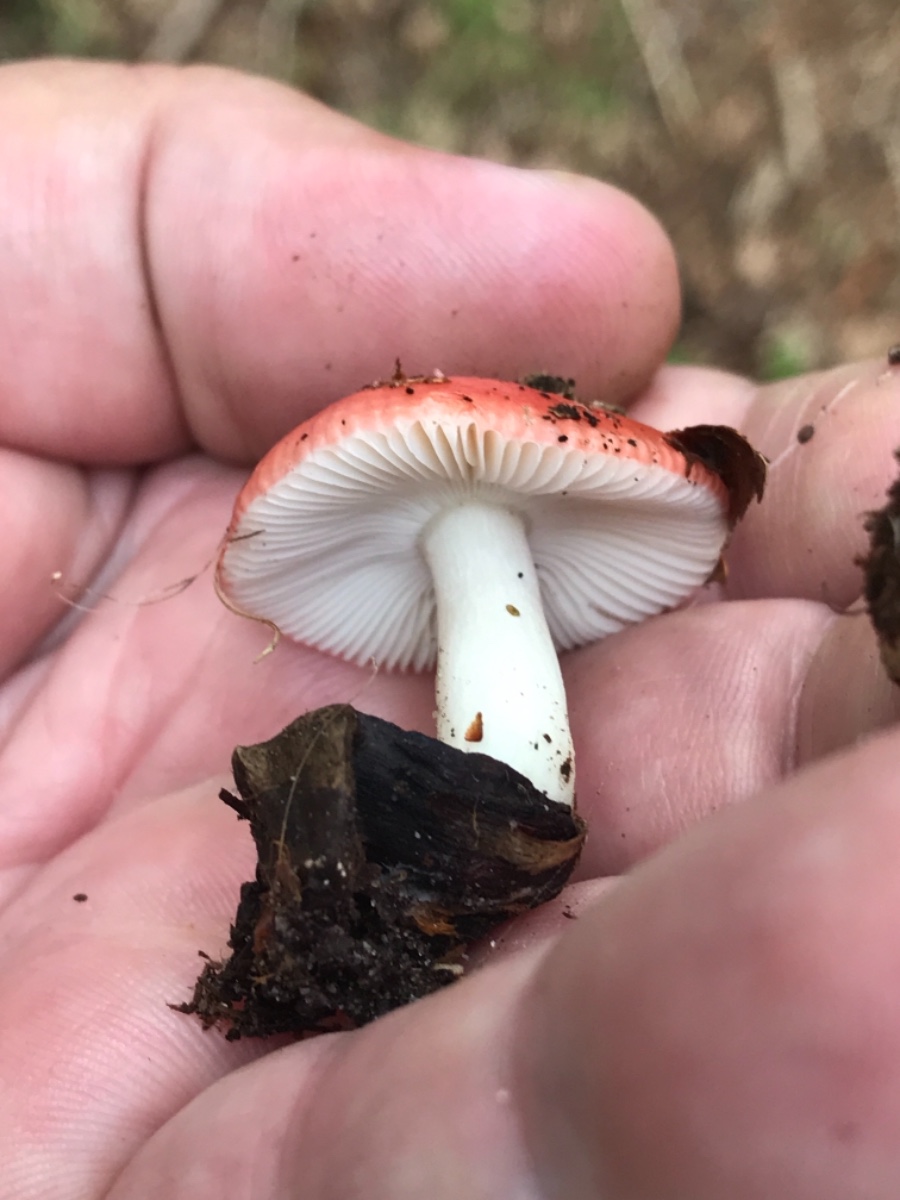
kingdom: Fungi
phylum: Basidiomycota
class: Agaricomycetes
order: Russulales
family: Russulaceae
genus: Russula
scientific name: Russula silvestris
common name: mellemstor gift-skørhat
